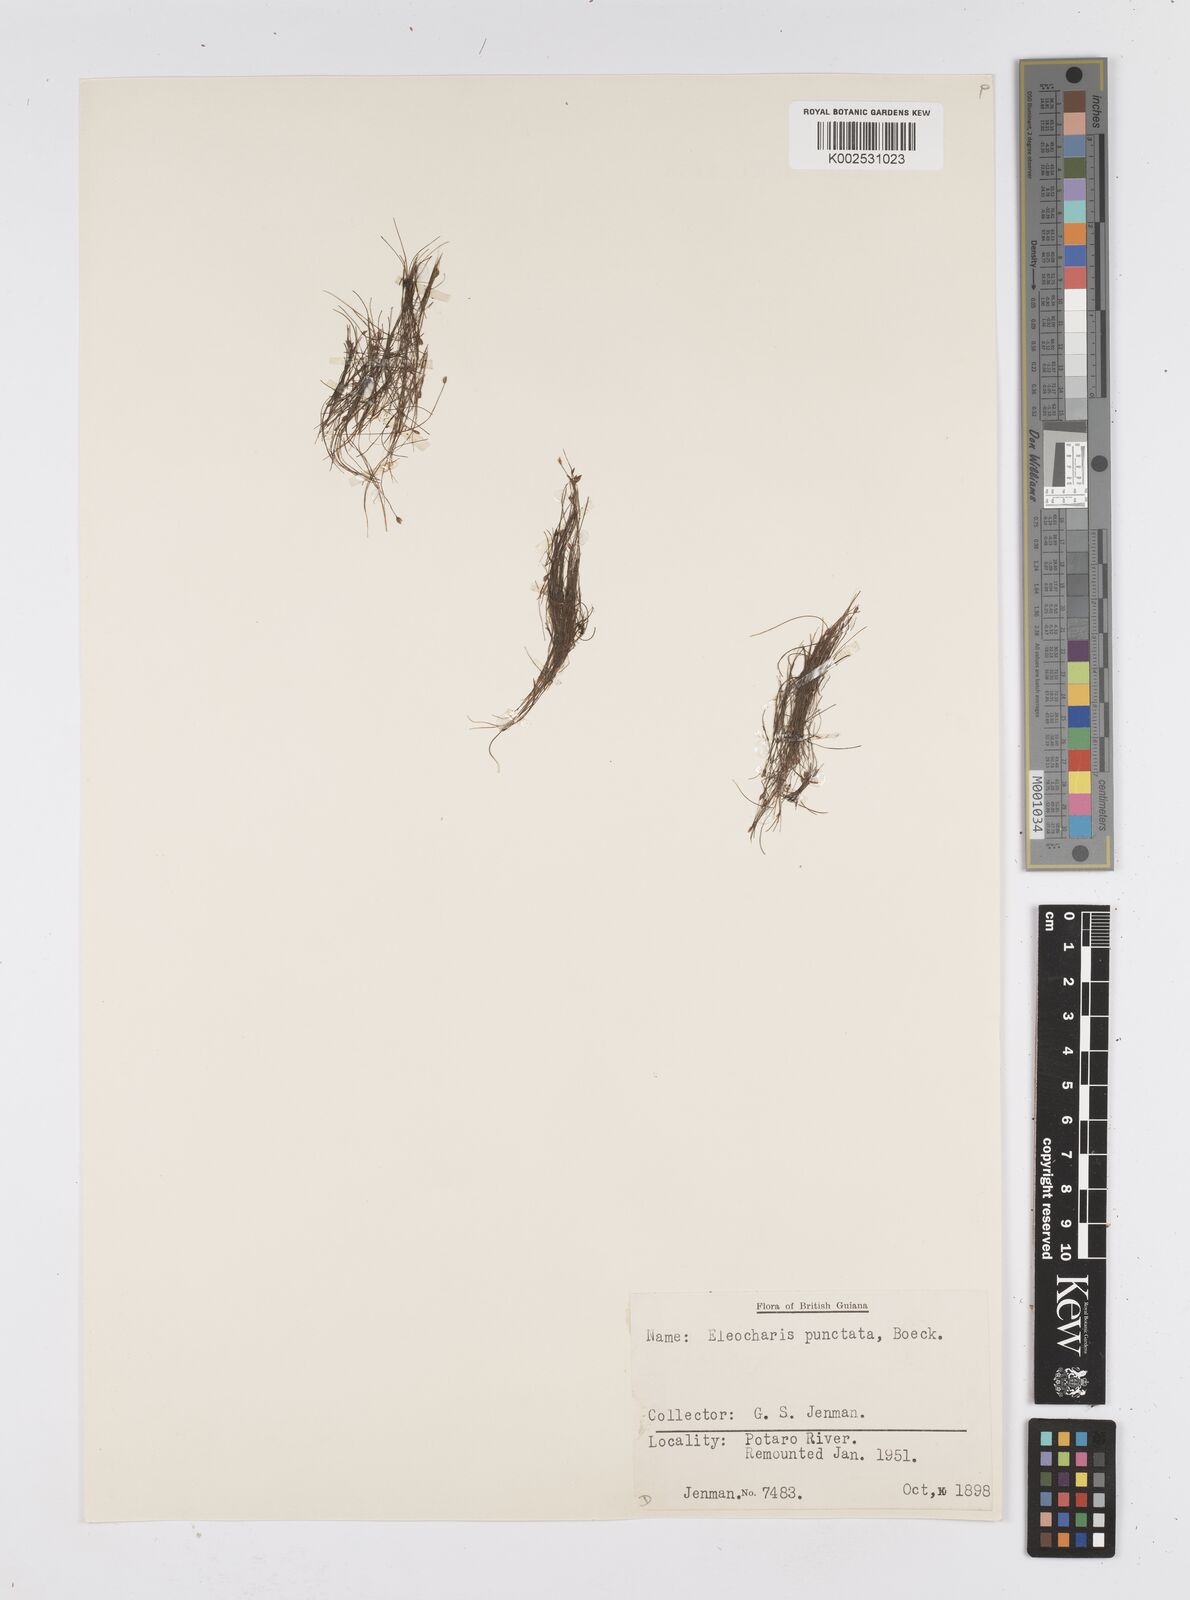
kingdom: Plantae
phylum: Tracheophyta
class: Liliopsida
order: Poales
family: Cyperaceae
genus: Eleocharis
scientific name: Eleocharis nana
